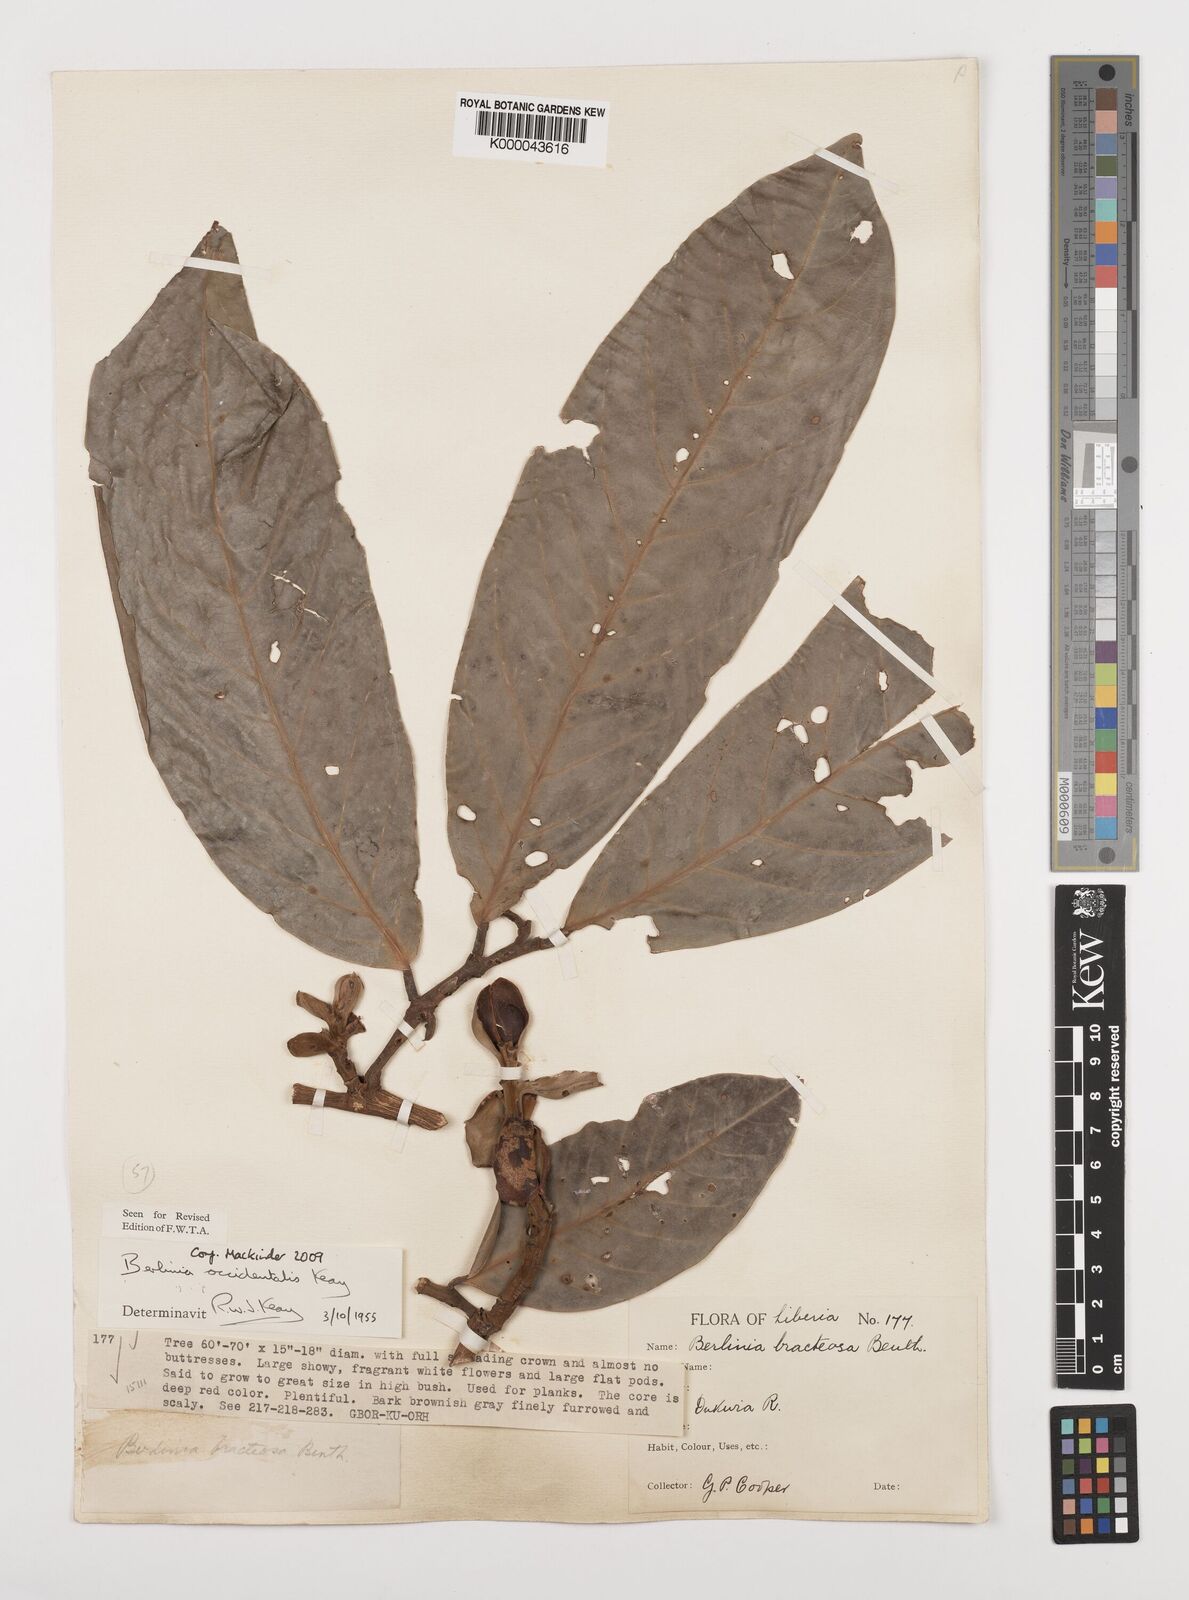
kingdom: Plantae
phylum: Tracheophyta
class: Magnoliopsida
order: Fabales
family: Fabaceae
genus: Berlinia
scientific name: Berlinia occidentalis
